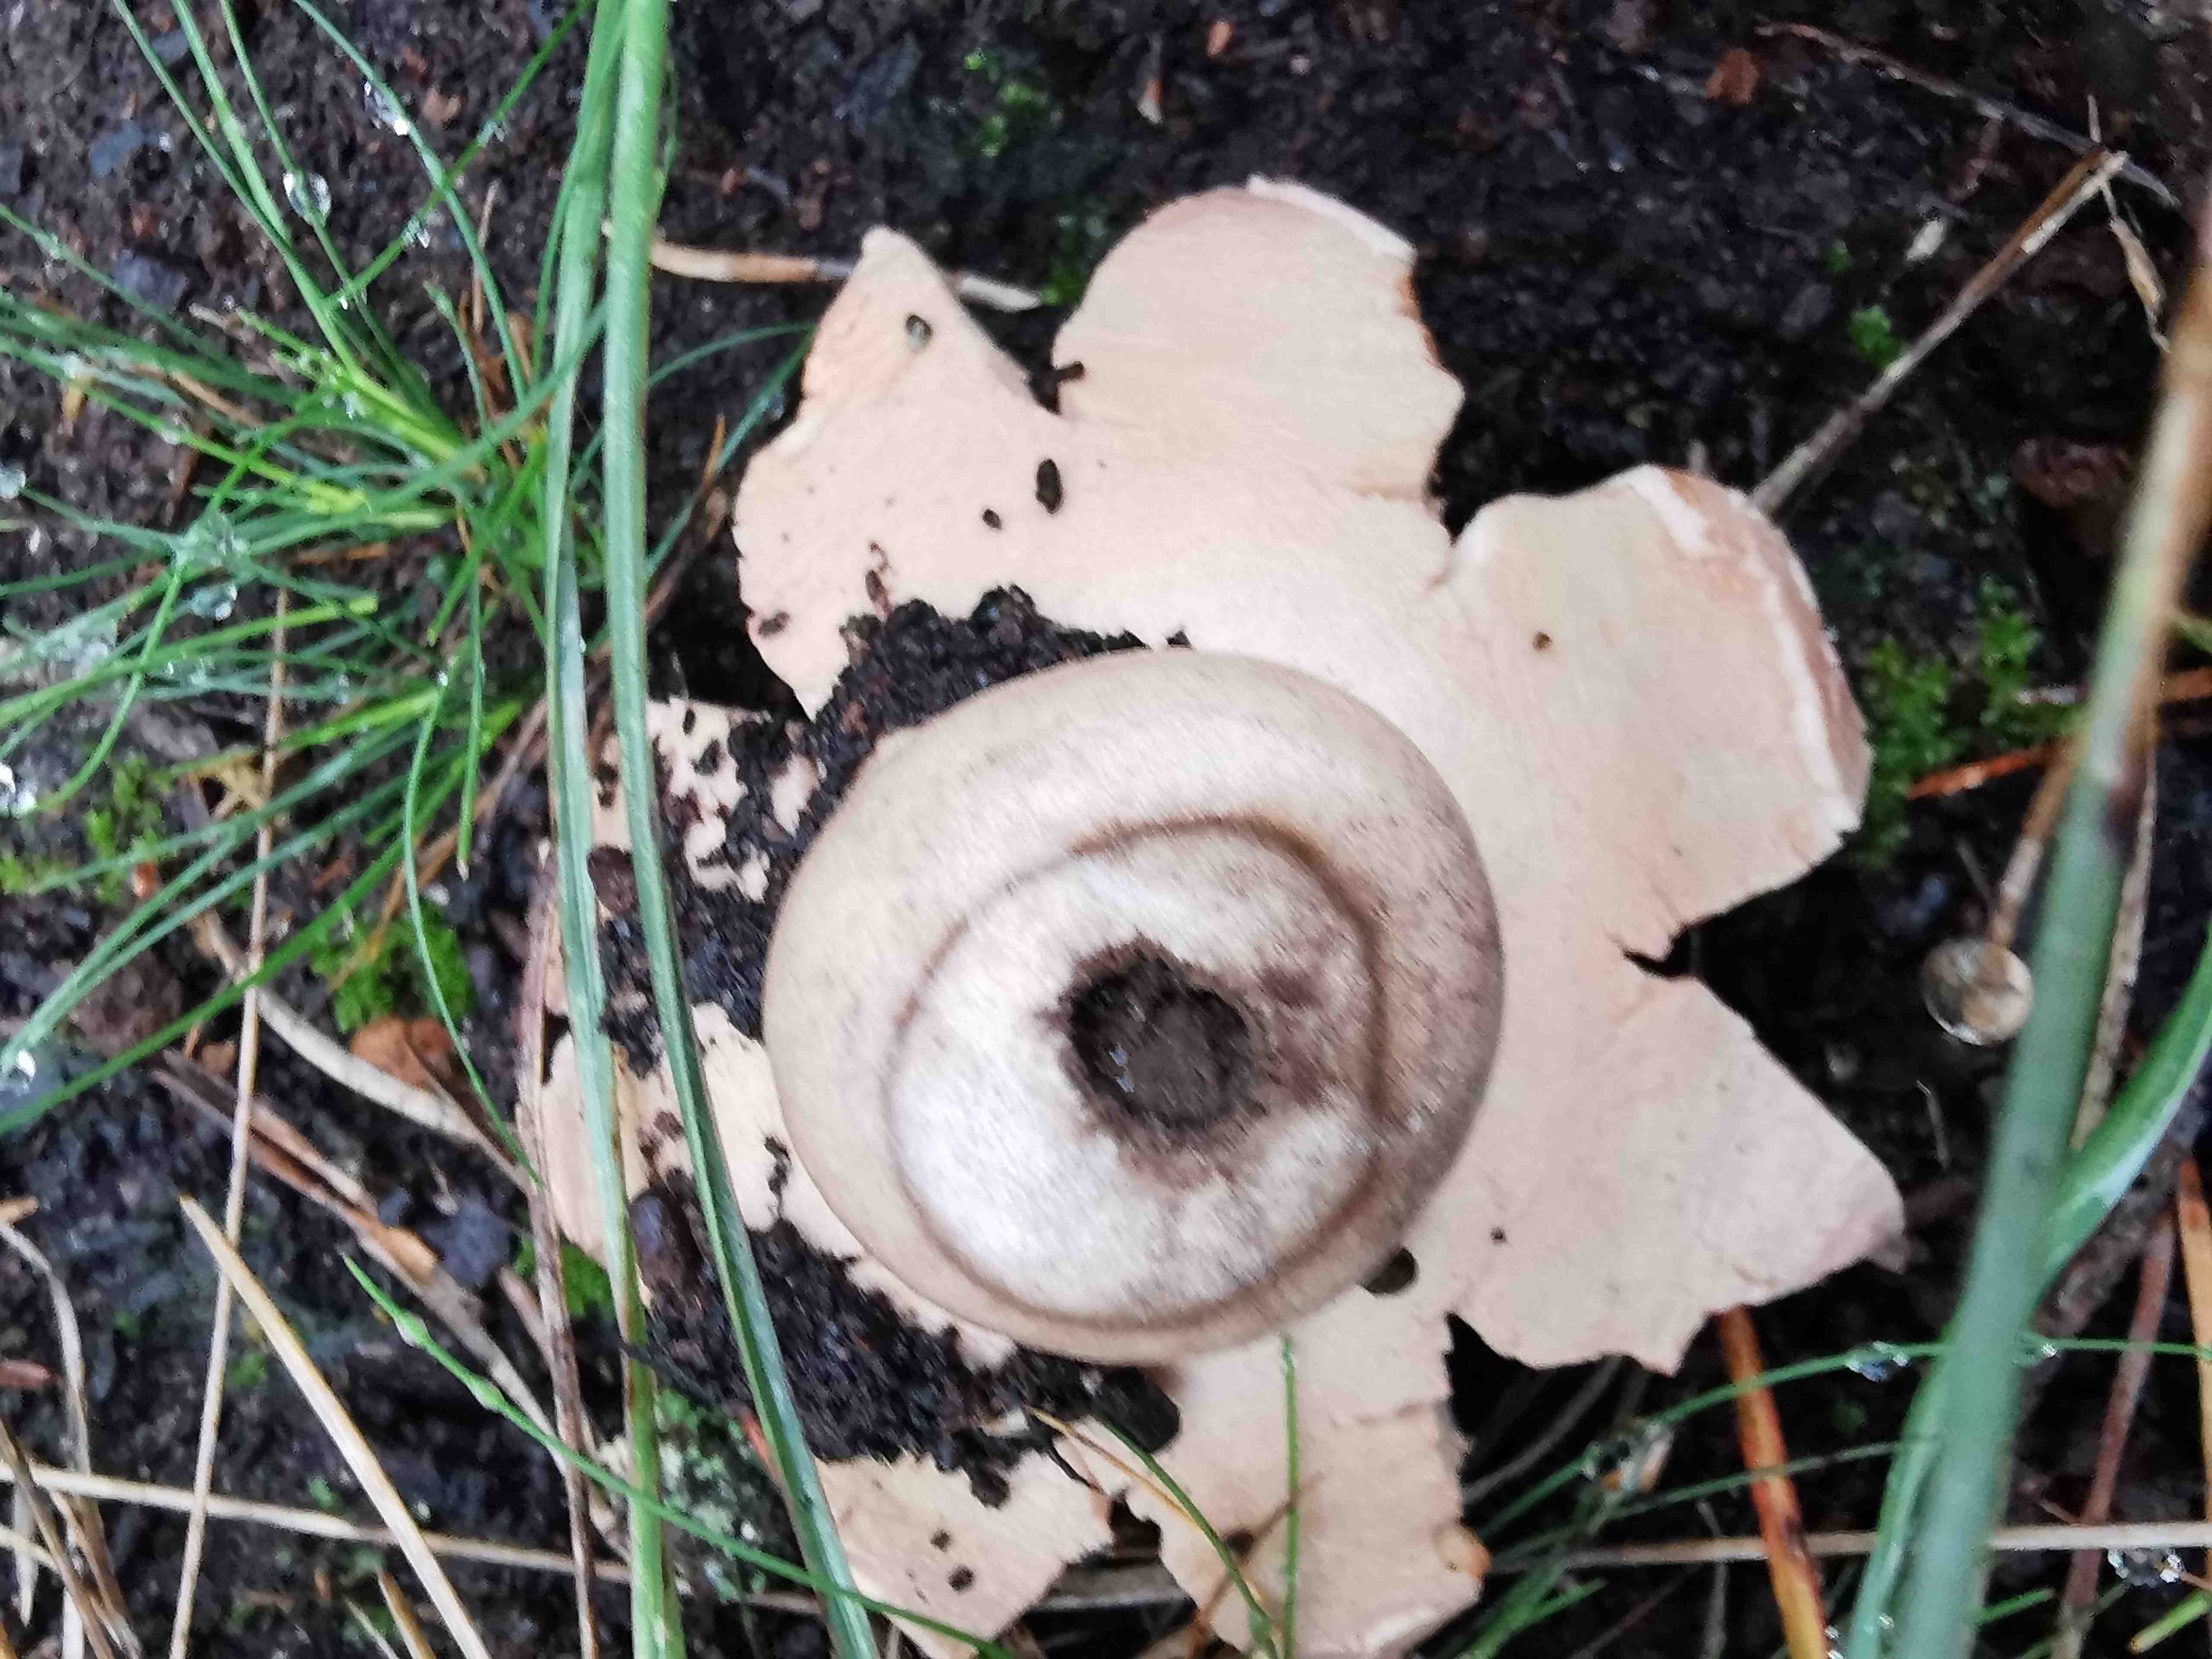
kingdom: Fungi
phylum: Basidiomycota
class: Agaricomycetes
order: Geastrales
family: Geastraceae
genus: Geastrum
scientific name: Geastrum michelianum
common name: kødet stjernebold
